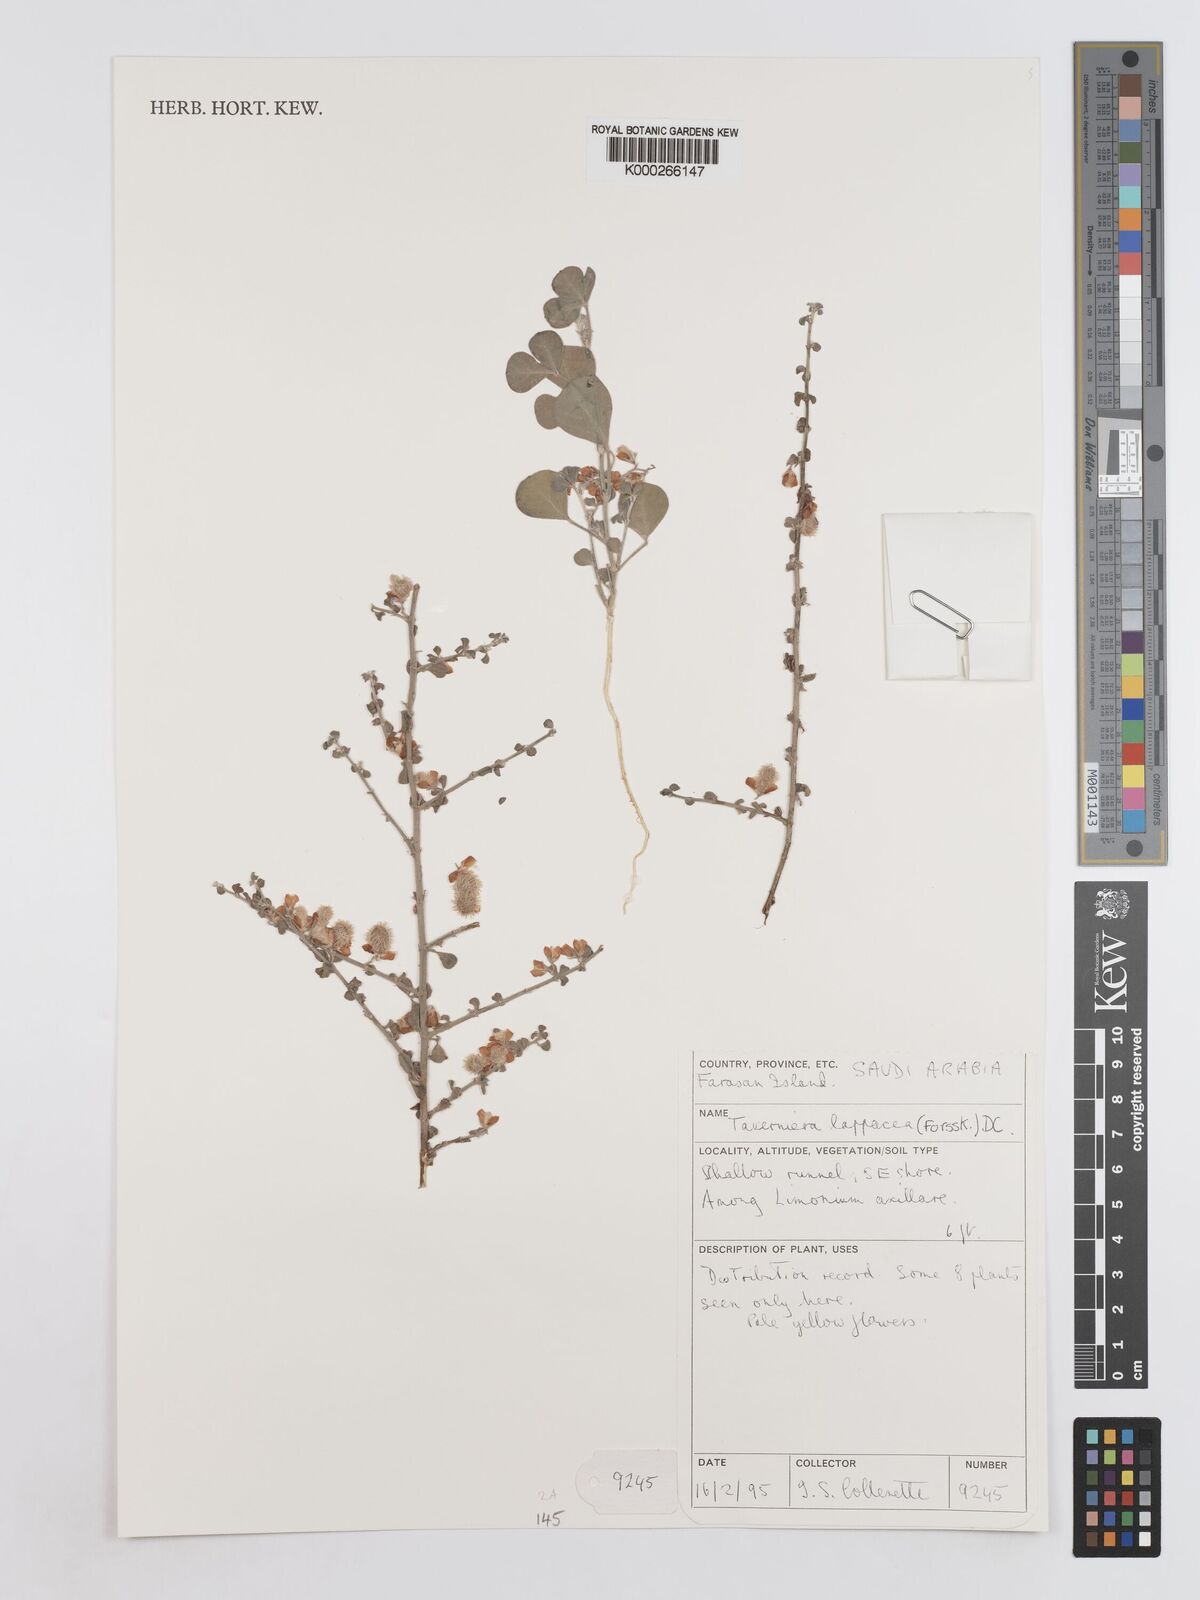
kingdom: Plantae
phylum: Tracheophyta
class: Magnoliopsida
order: Fabales
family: Fabaceae
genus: Taverniera
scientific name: Taverniera lappacea
